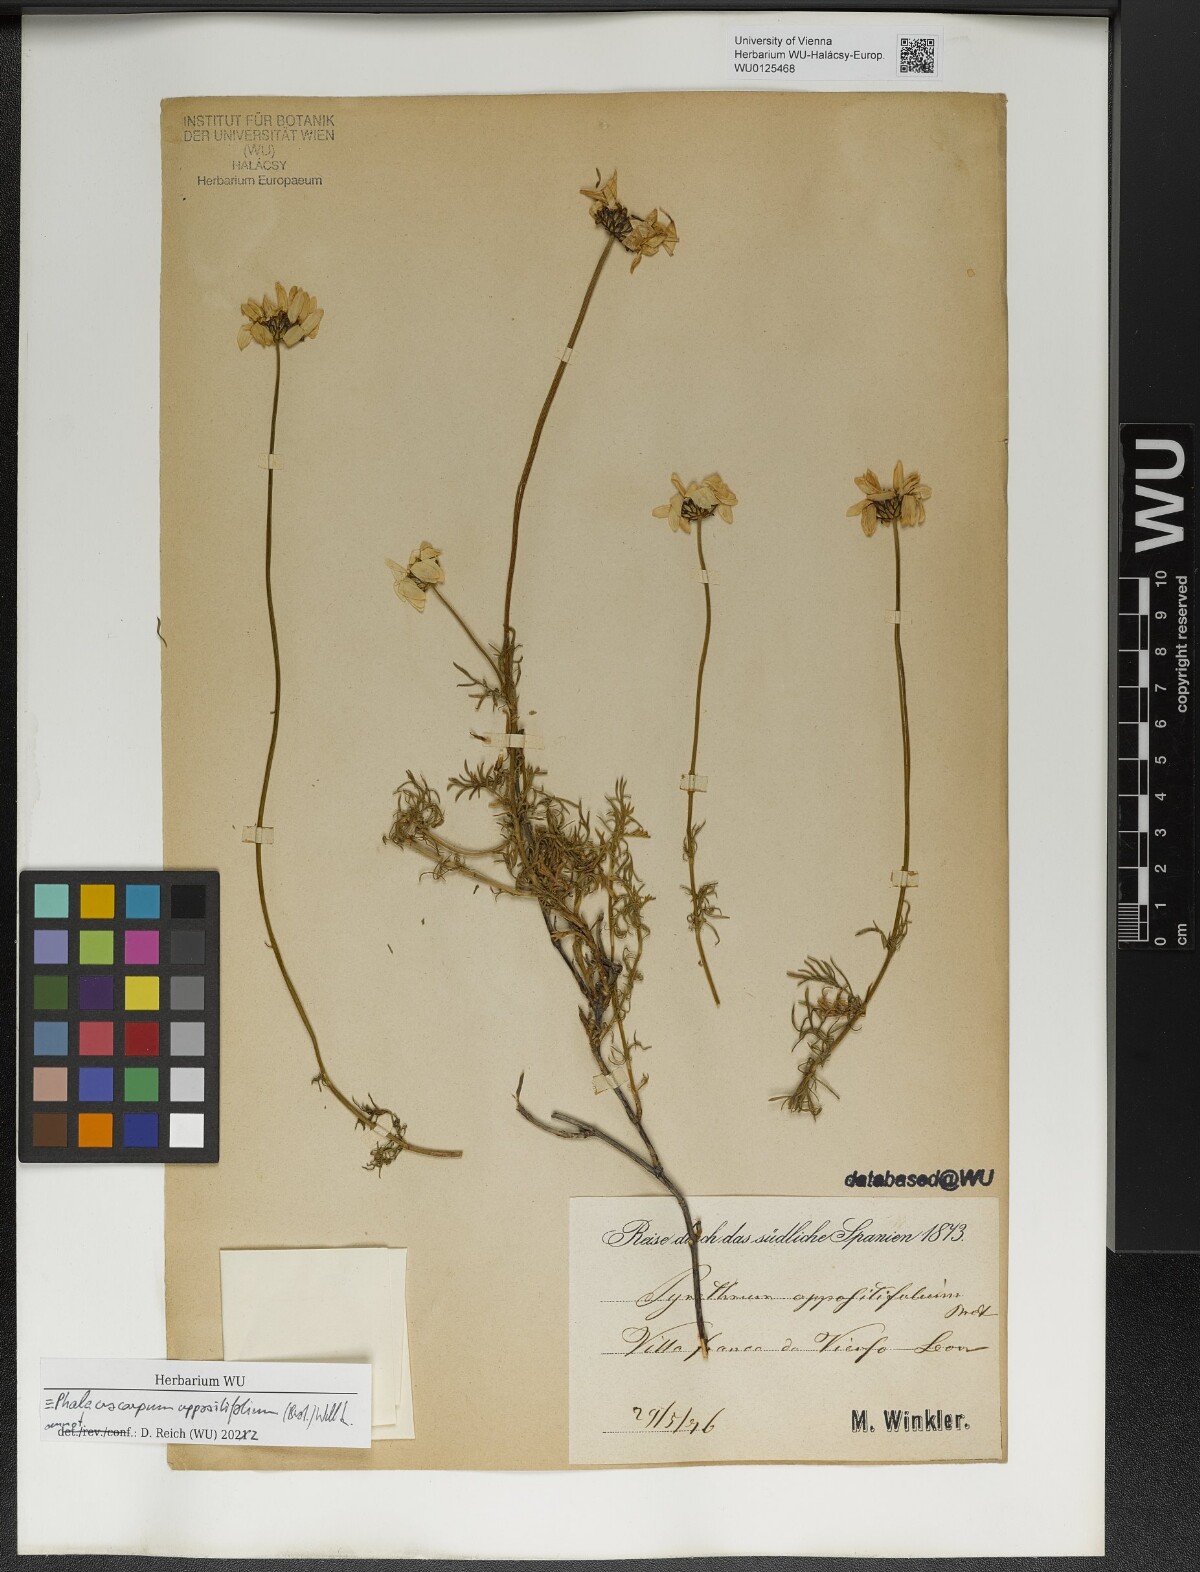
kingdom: Plantae
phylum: Tracheophyta
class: Magnoliopsida
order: Asterales
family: Asteraceae
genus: Phalacrocarpum
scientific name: Phalacrocarpum oppositifolium
